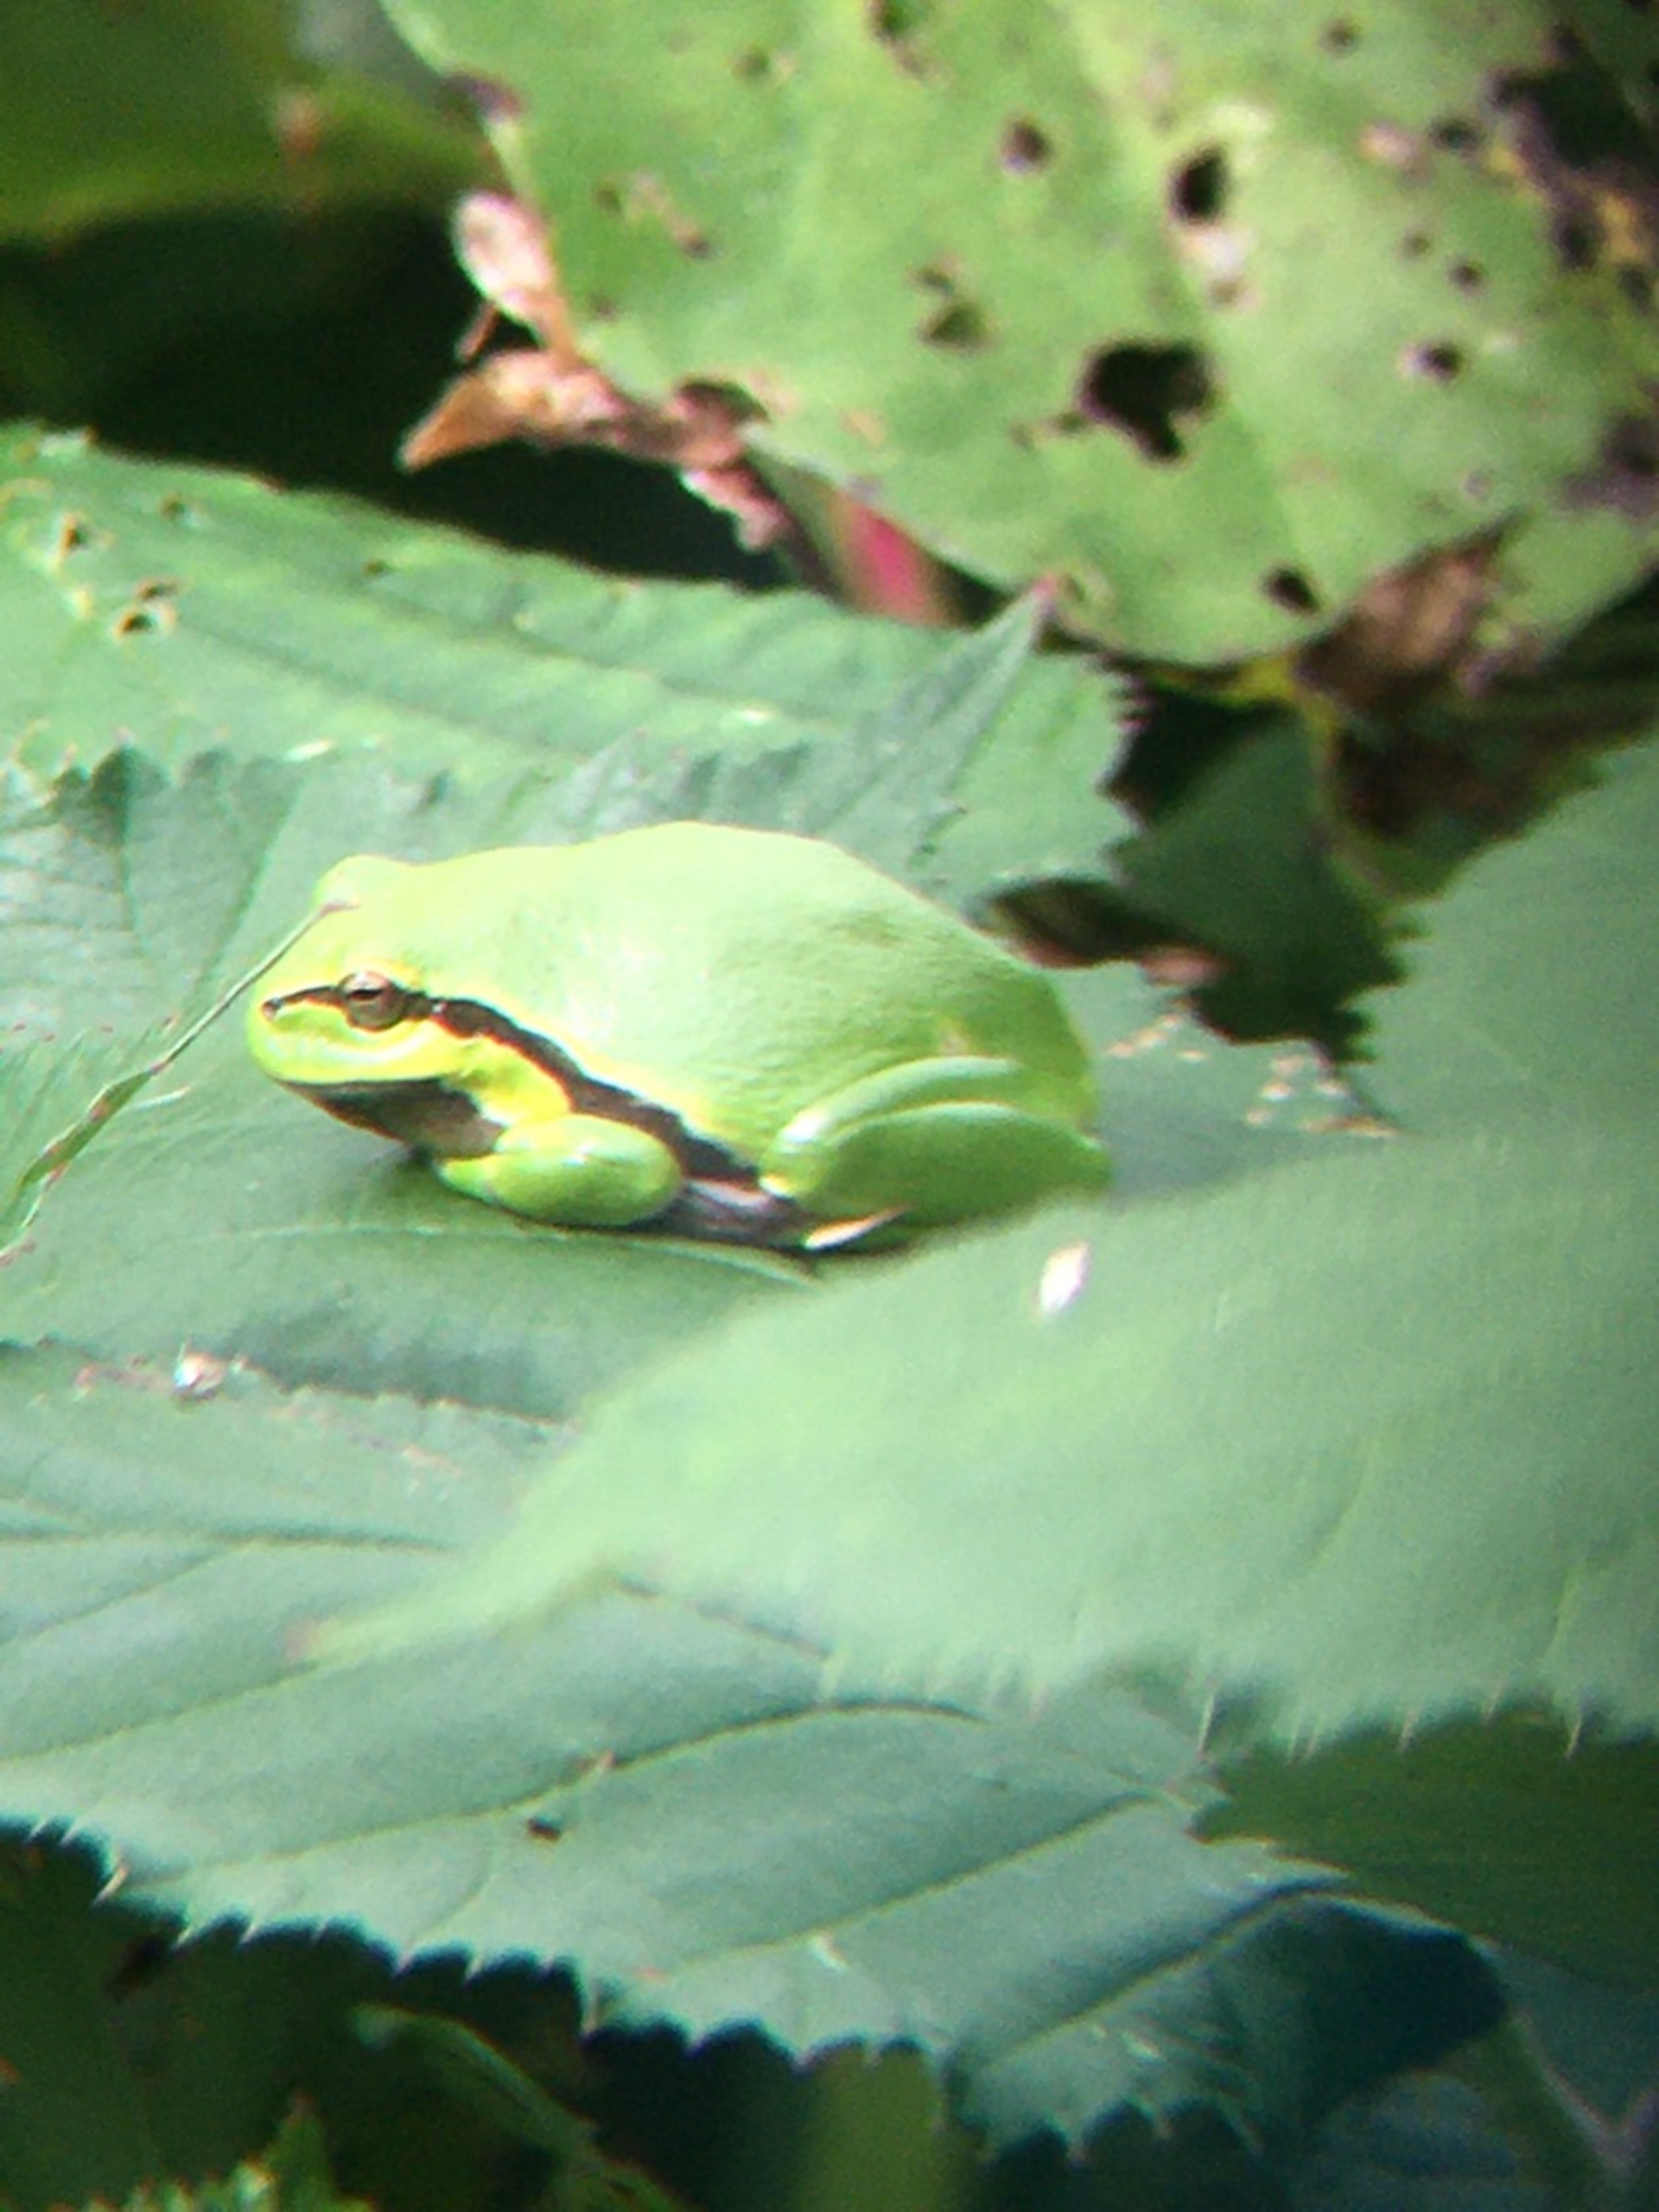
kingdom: Animalia
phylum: Chordata
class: Amphibia
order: Anura
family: Hylidae
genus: Hyla
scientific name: Hyla arborea
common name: Løvfrø
